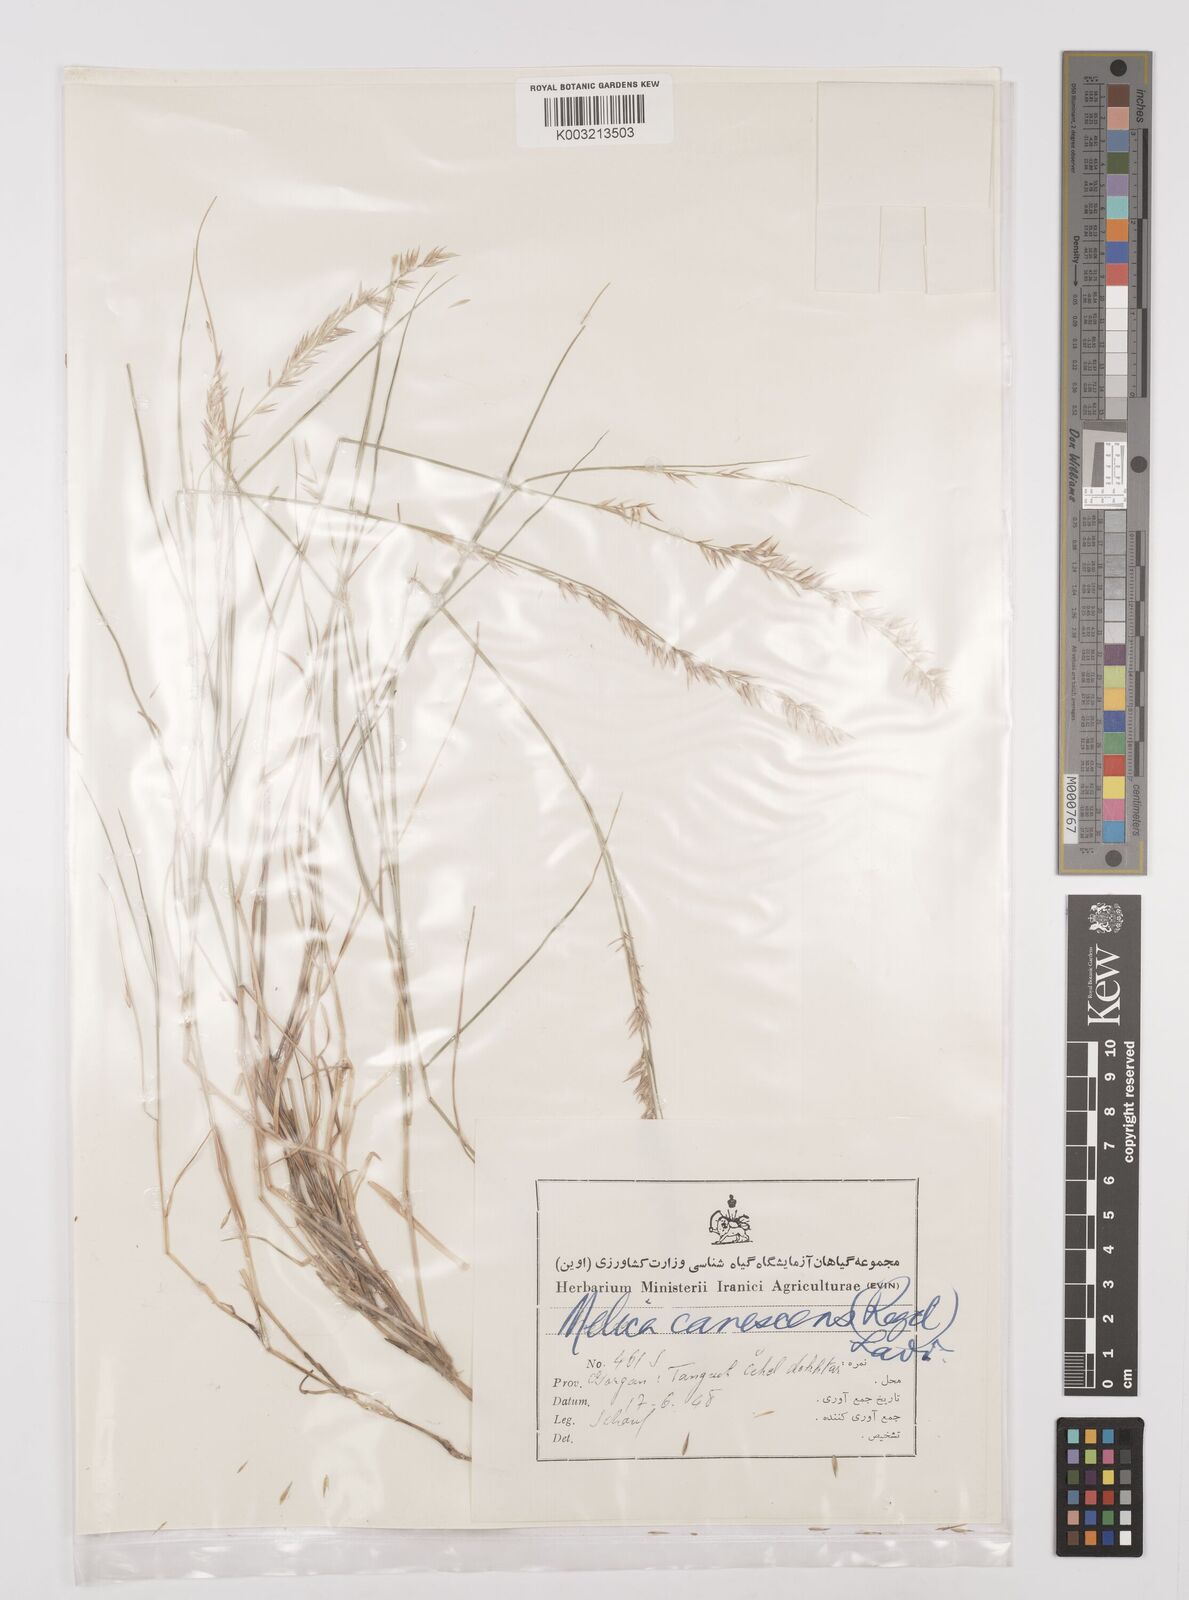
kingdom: Plantae
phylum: Tracheophyta
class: Liliopsida
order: Poales
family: Poaceae
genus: Melica
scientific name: Melica persica
